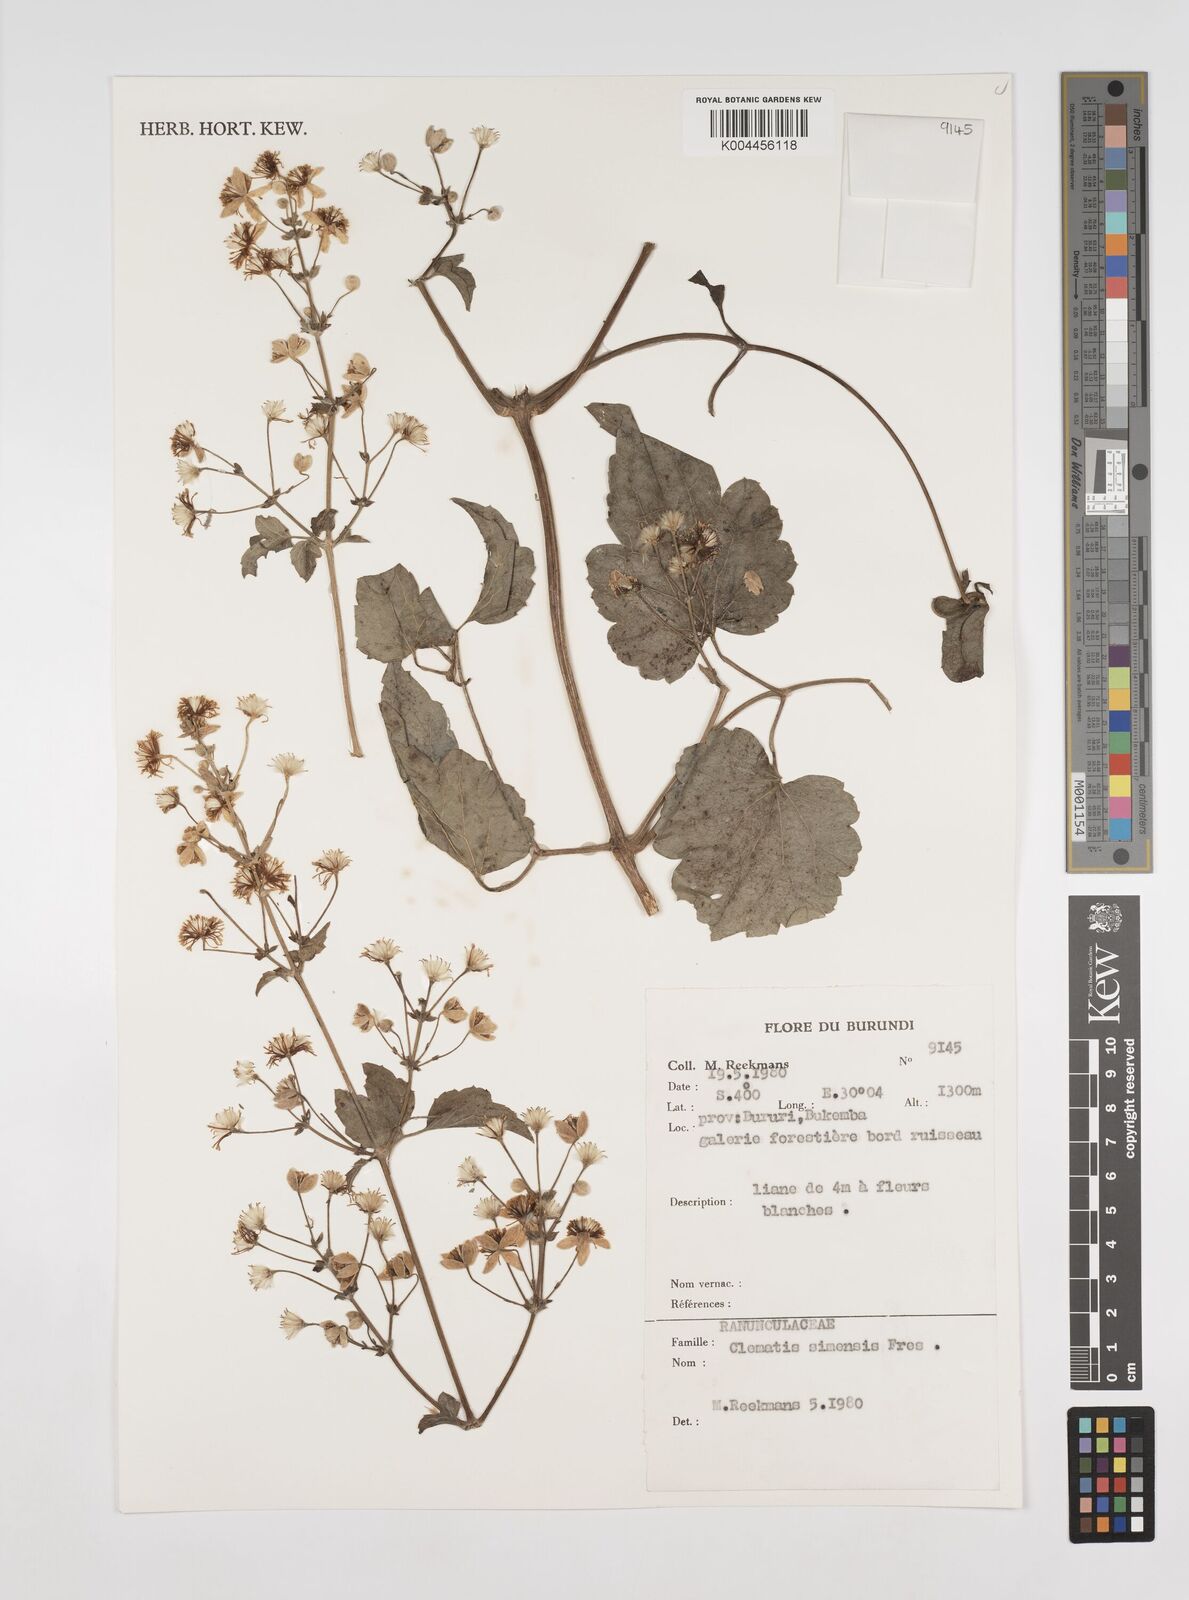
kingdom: Plantae
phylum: Tracheophyta
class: Magnoliopsida
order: Ranunculales
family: Ranunculaceae
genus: Clematis
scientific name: Clematis simensis
